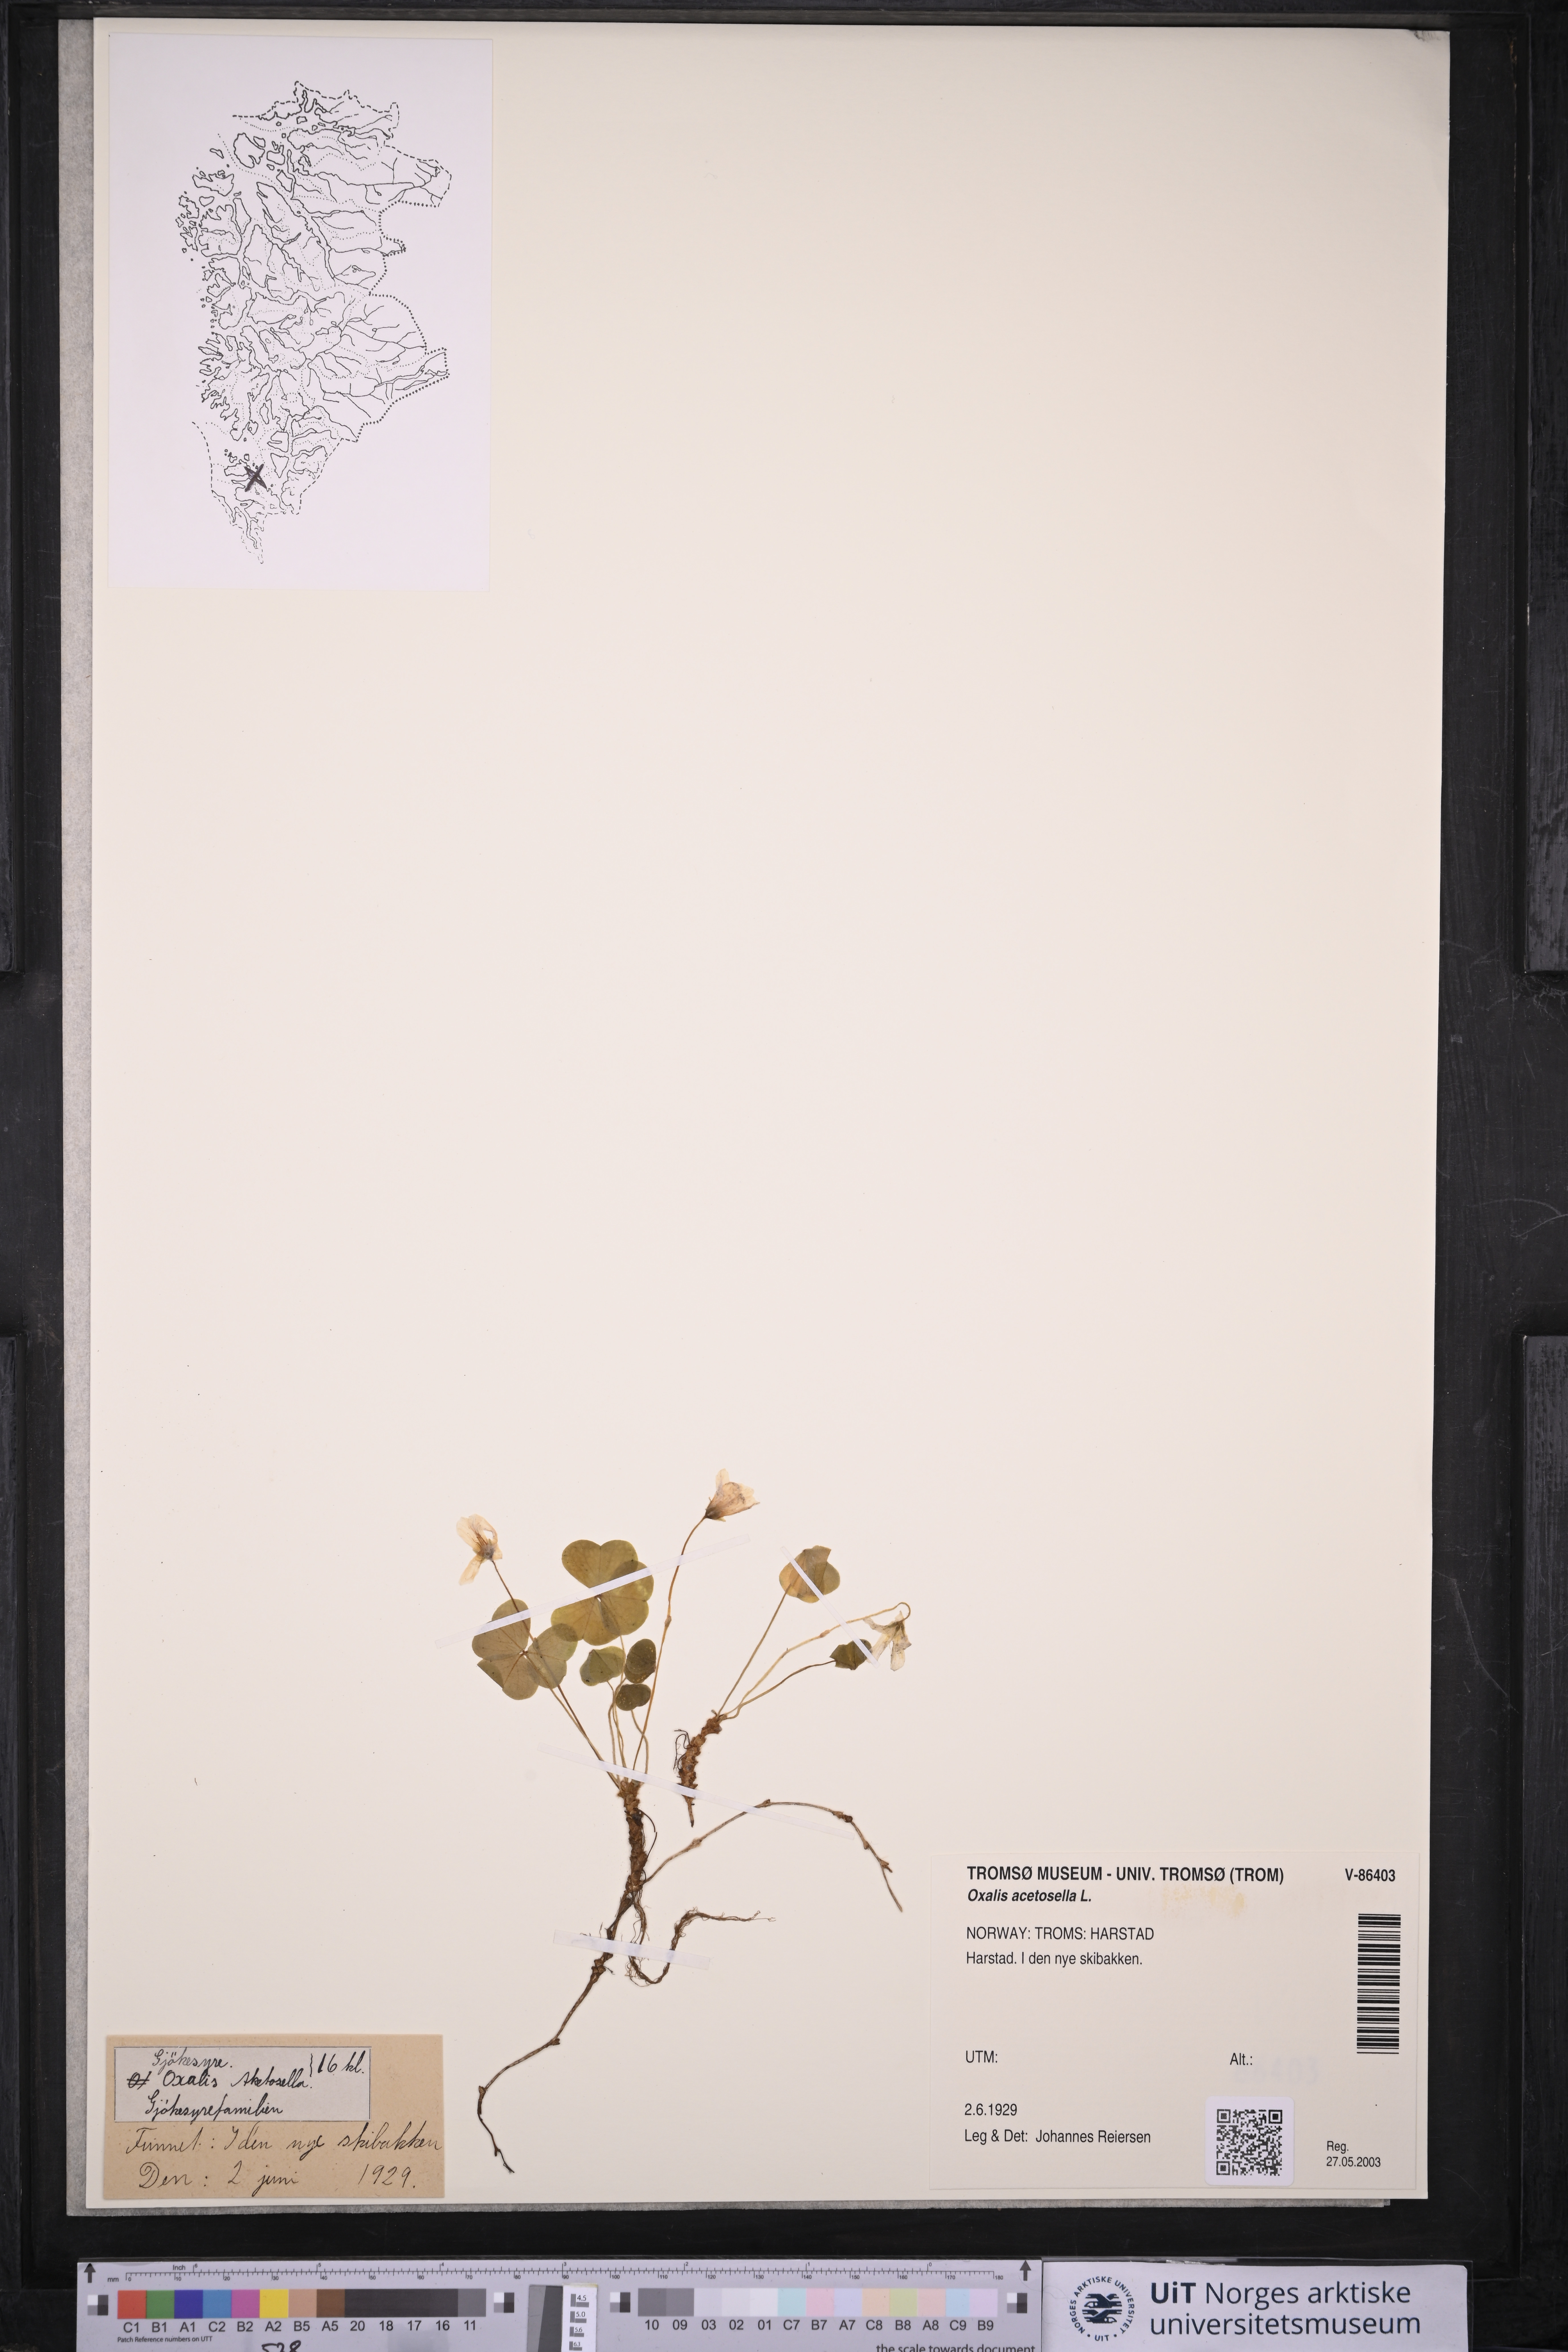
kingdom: Plantae
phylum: Tracheophyta
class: Magnoliopsida
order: Oxalidales
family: Oxalidaceae
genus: Oxalis
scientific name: Oxalis acetosella
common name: Wood-sorrel
